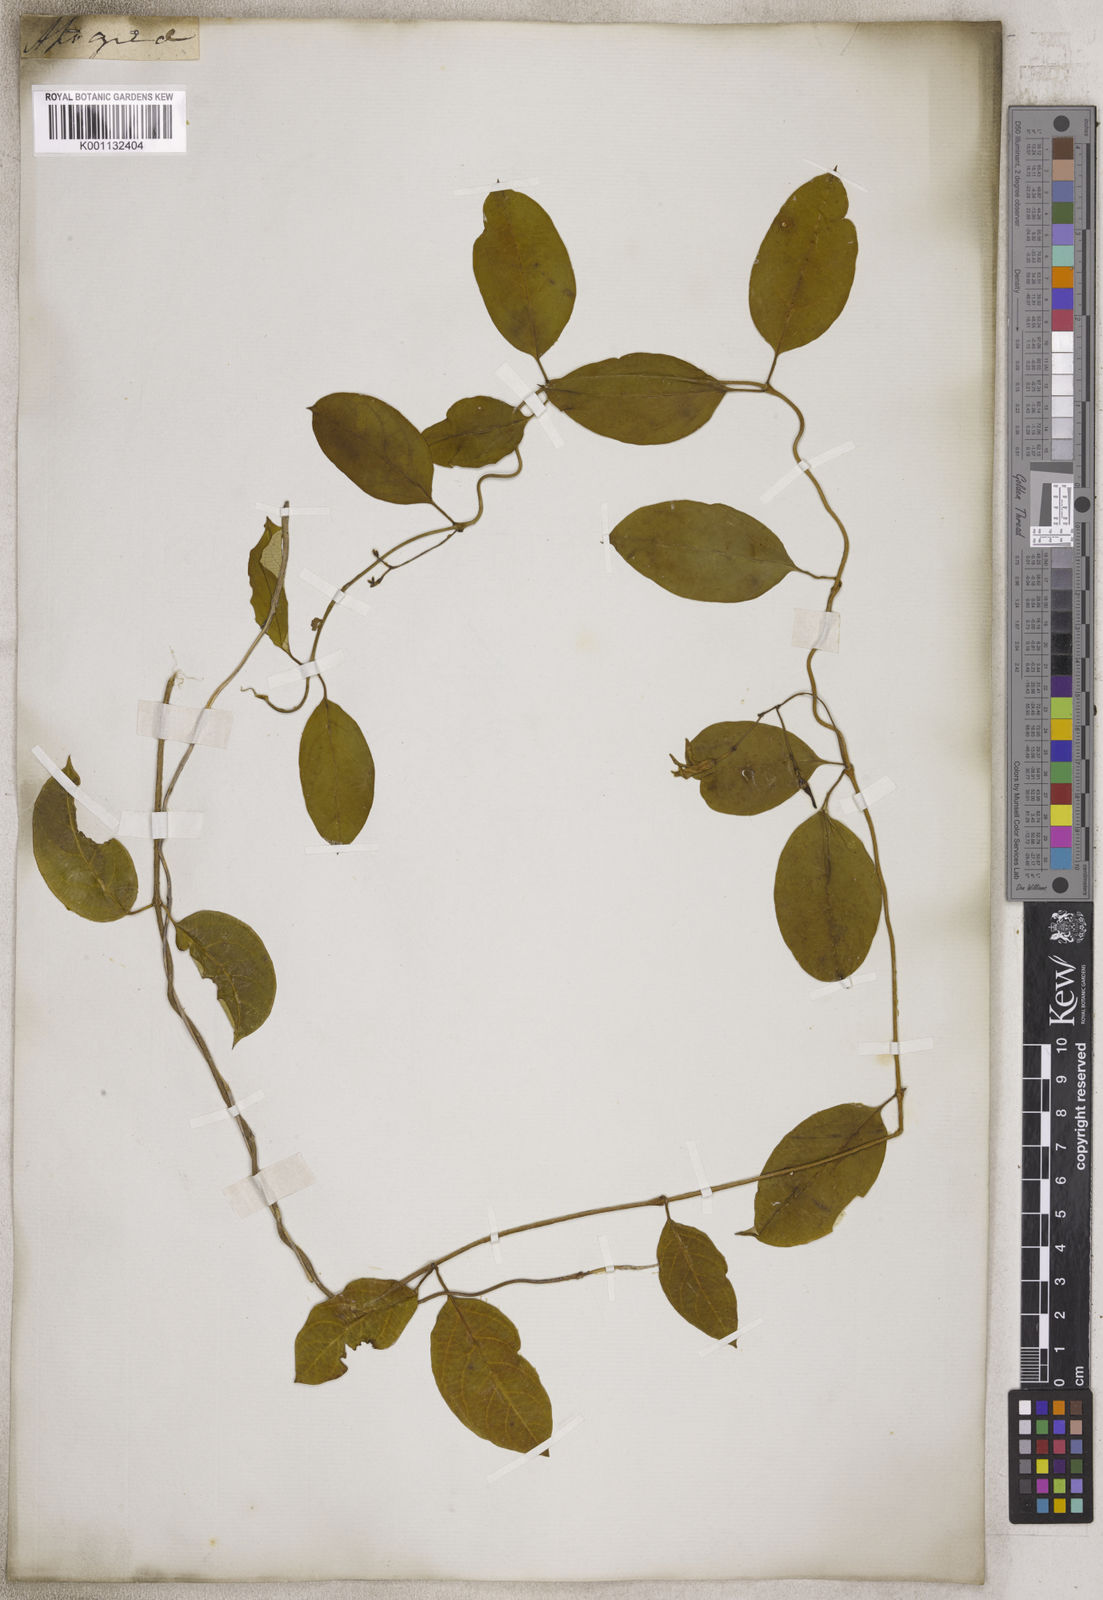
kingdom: Plantae
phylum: Tracheophyta
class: Magnoliopsida
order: Gentianales
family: Apocynaceae
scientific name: Apocynaceae
